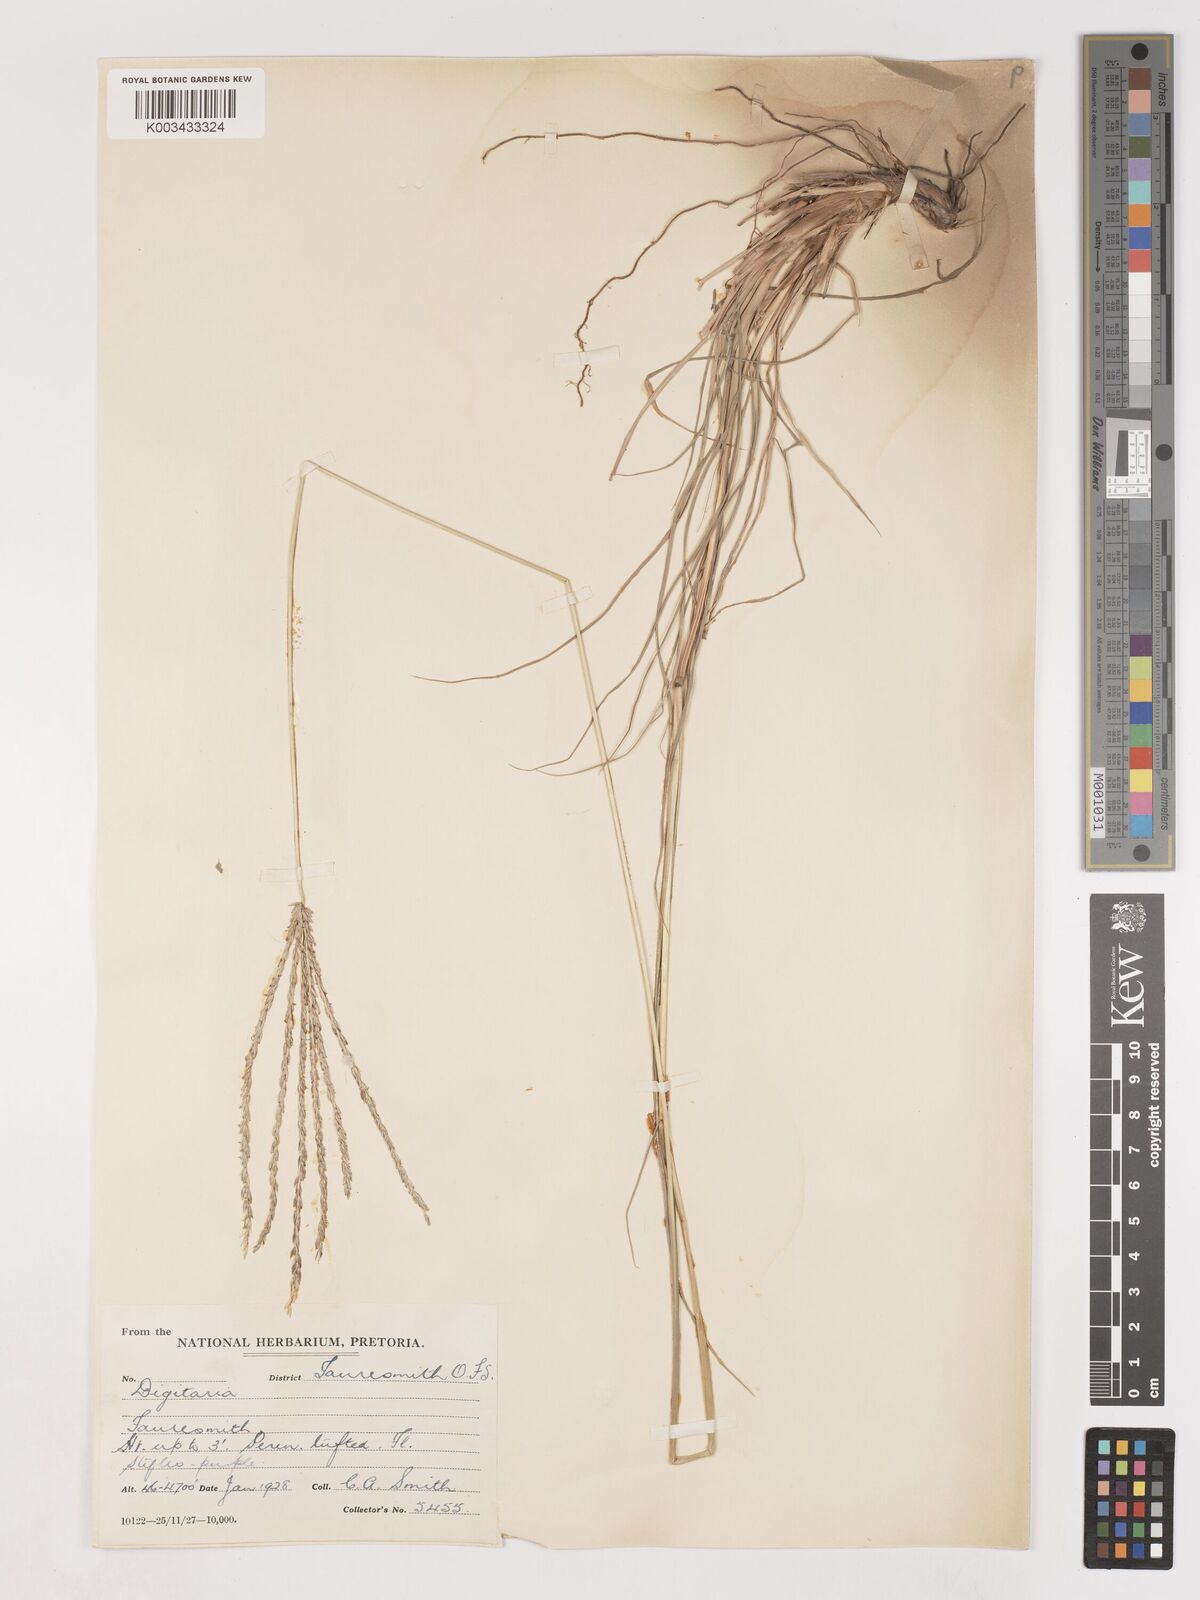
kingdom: Plantae
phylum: Tracheophyta
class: Liliopsida
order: Poales
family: Poaceae
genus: Digitaria
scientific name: Digitaria eriantha
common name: Digitgrass
